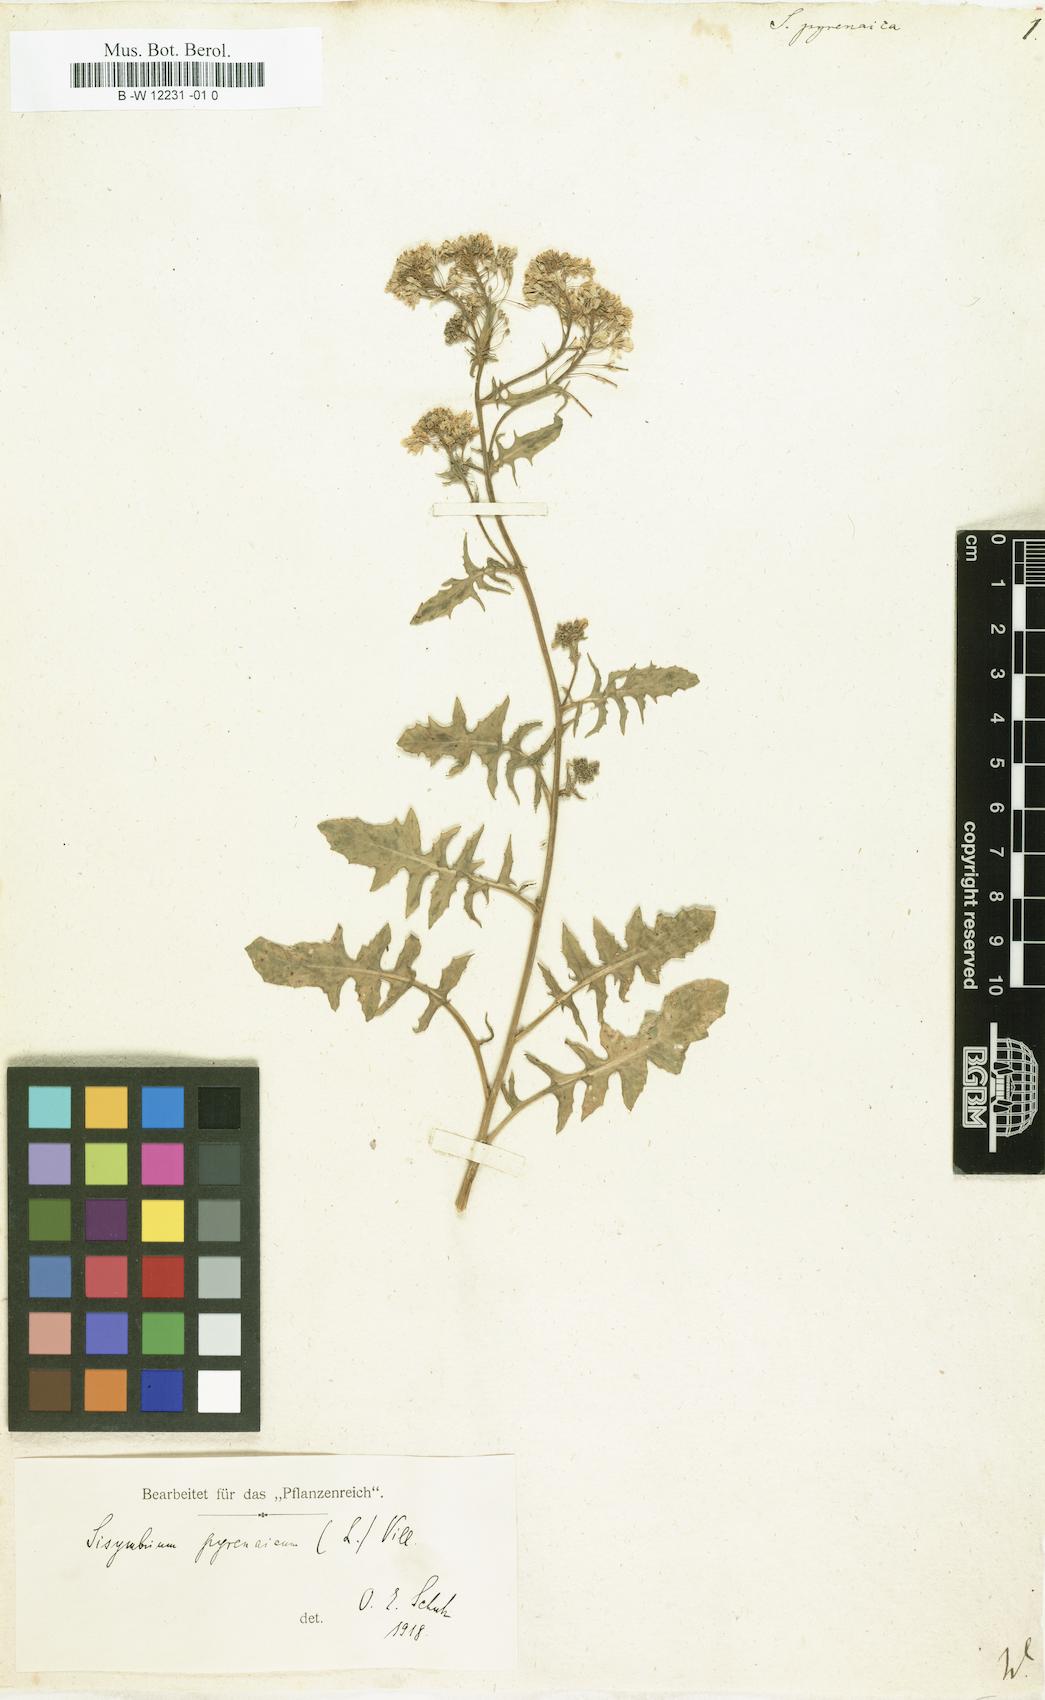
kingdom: Plantae
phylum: Tracheophyta
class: Magnoliopsida
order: Brassicales
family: Brassicaceae
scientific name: Brassicaceae
